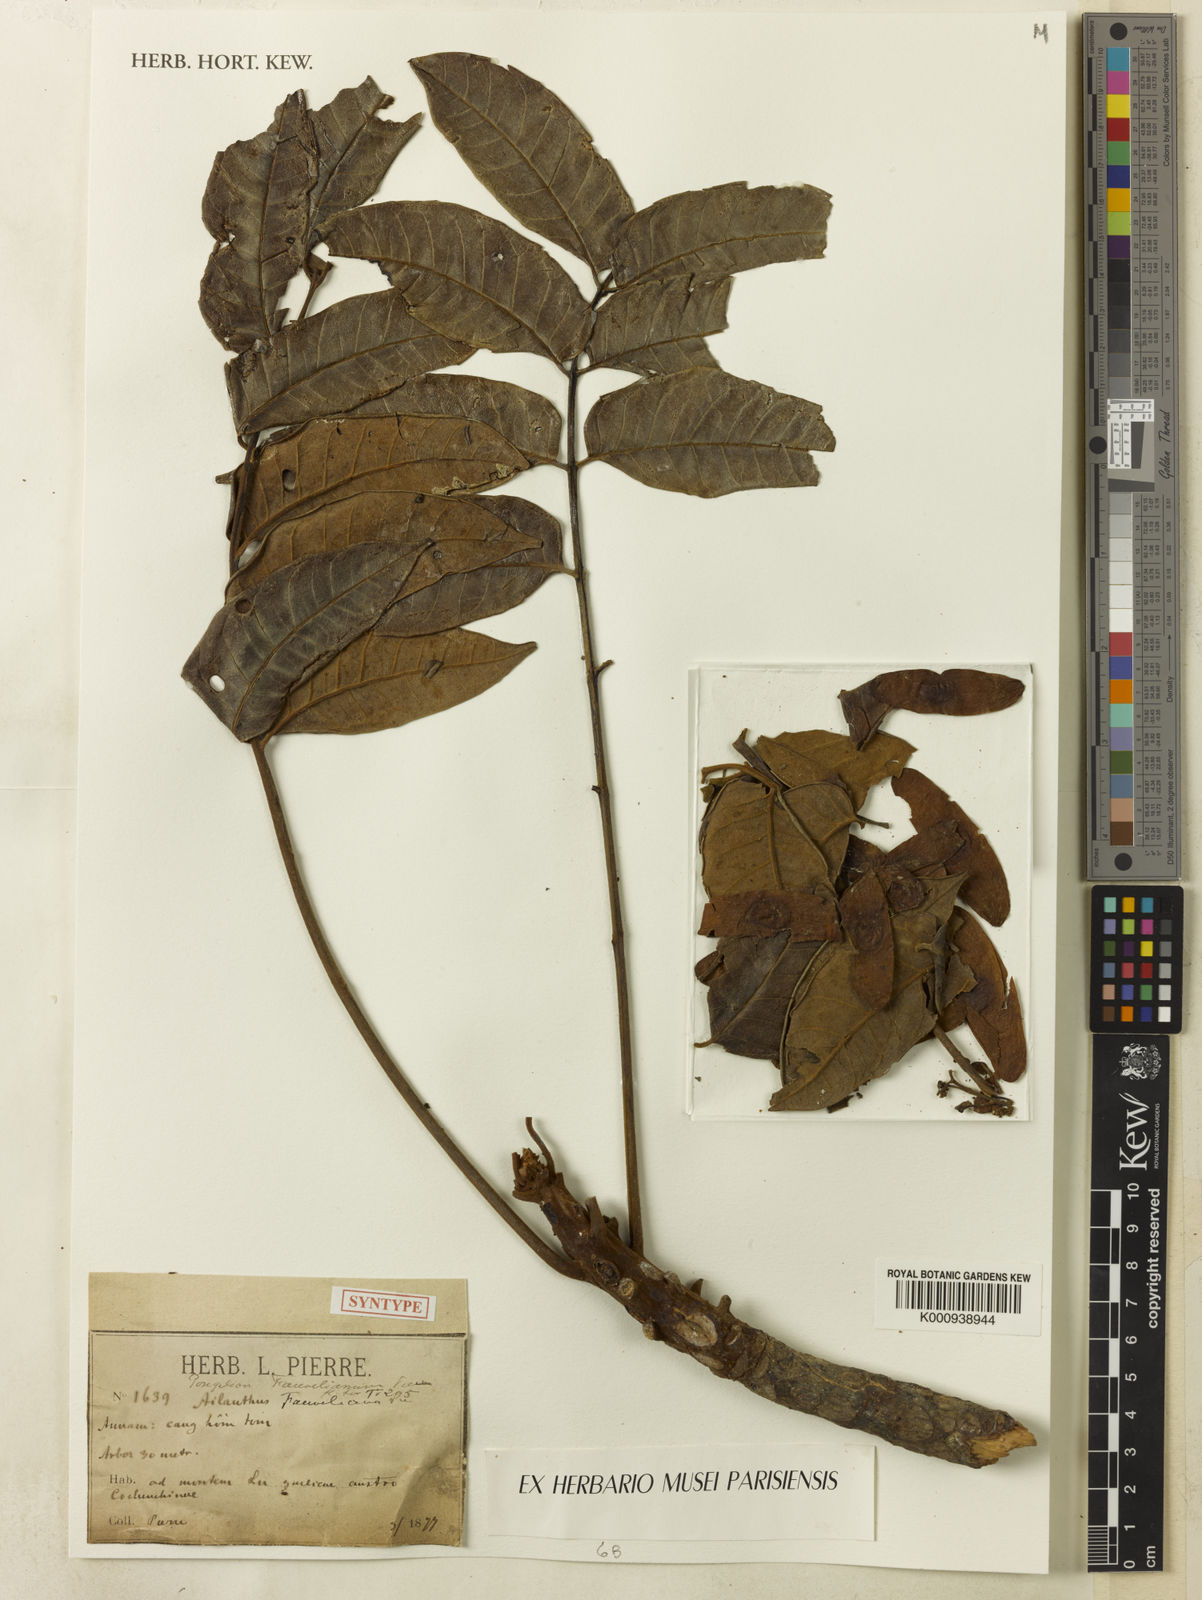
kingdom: Plantae
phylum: Tracheophyta
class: Magnoliopsida
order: Sapindales
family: Simaroubaceae
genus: Ailanthus
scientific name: Ailanthus
